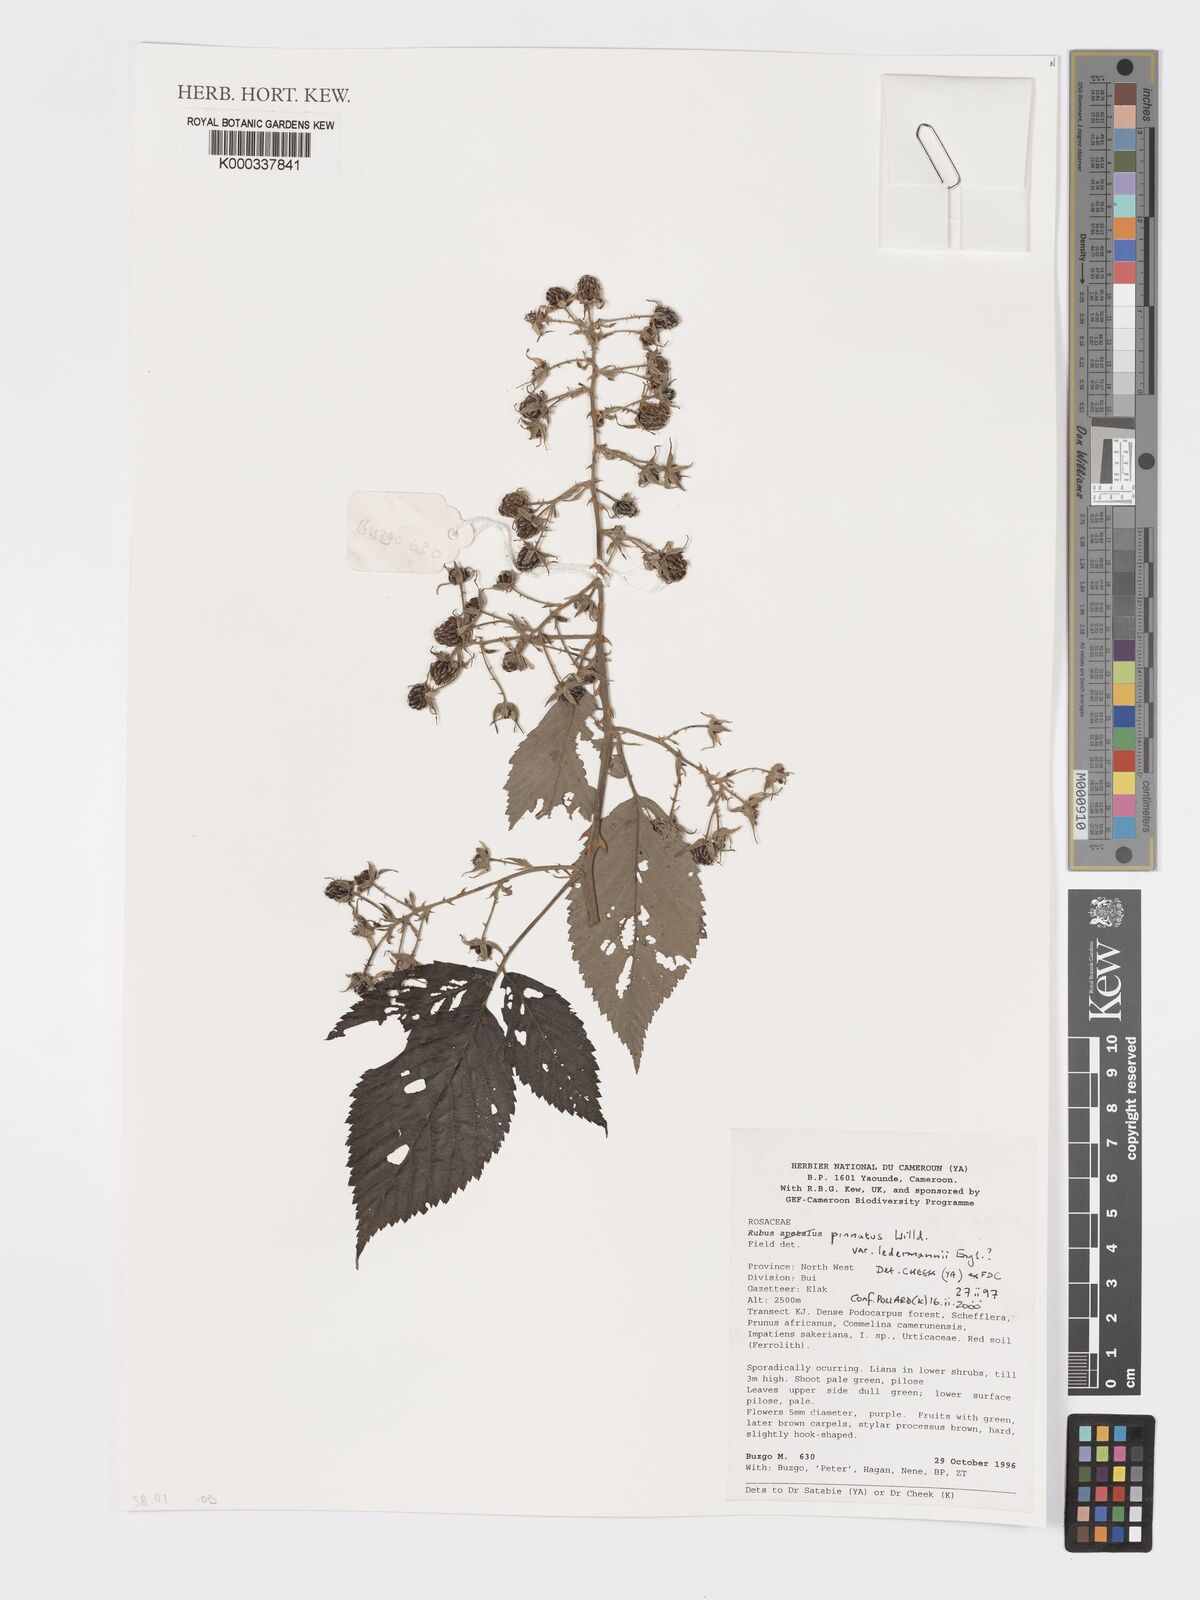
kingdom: Plantae
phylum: Tracheophyta
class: Magnoliopsida
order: Rosales
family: Rosaceae
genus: Rubus
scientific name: Rubus pinnatus
